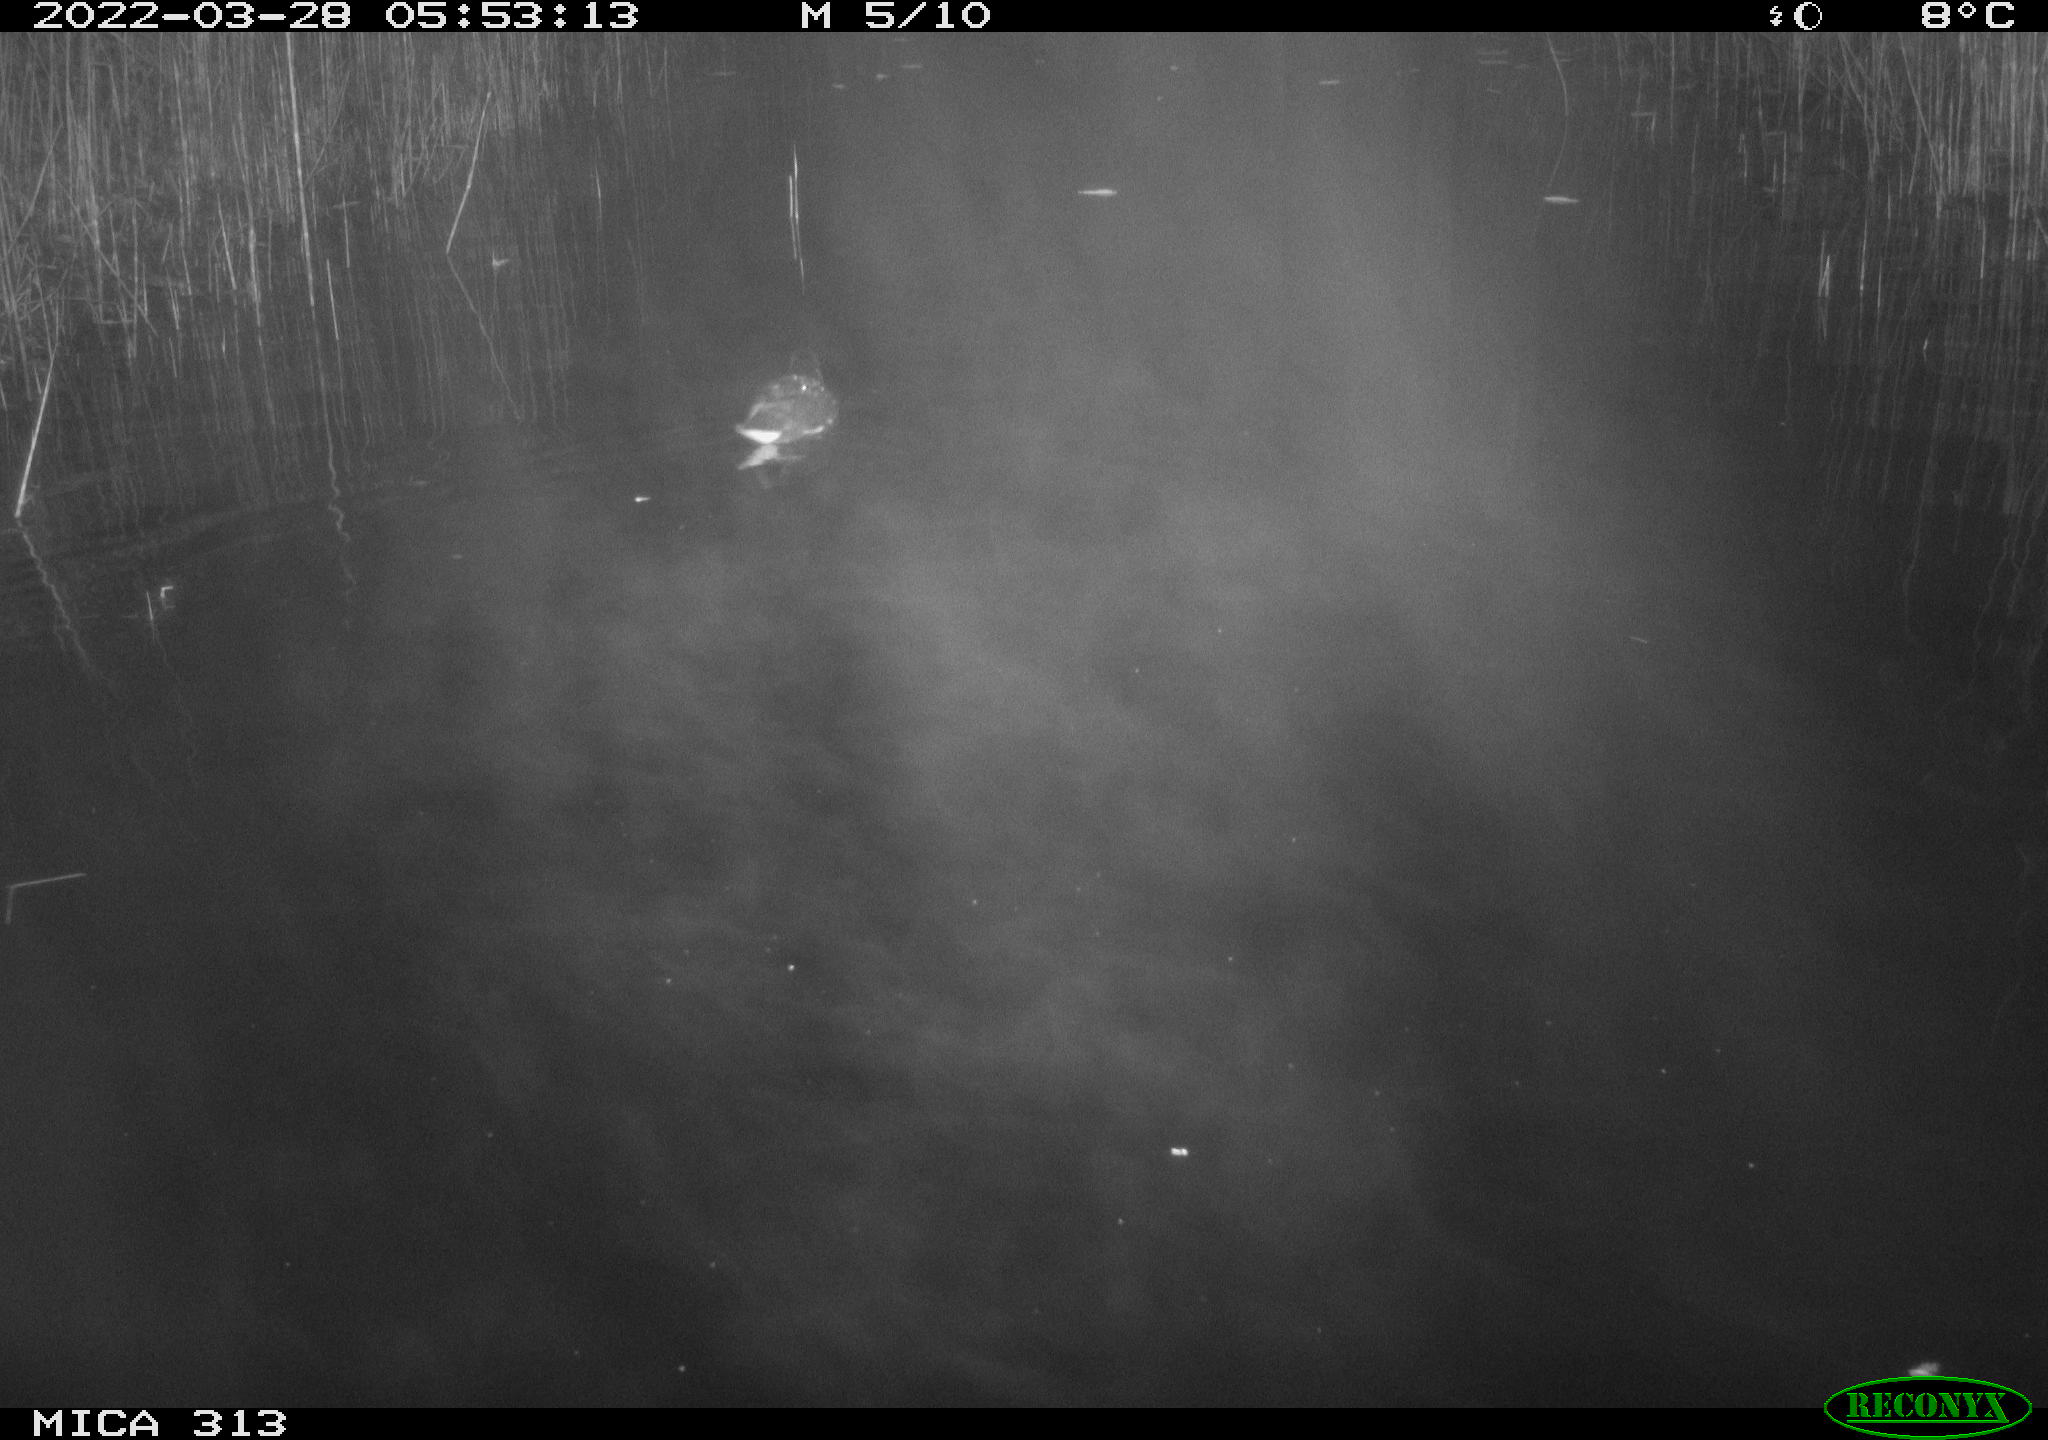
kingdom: Animalia
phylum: Chordata
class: Aves
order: Gruiformes
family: Rallidae
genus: Gallinula
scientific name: Gallinula chloropus
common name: Common moorhen
